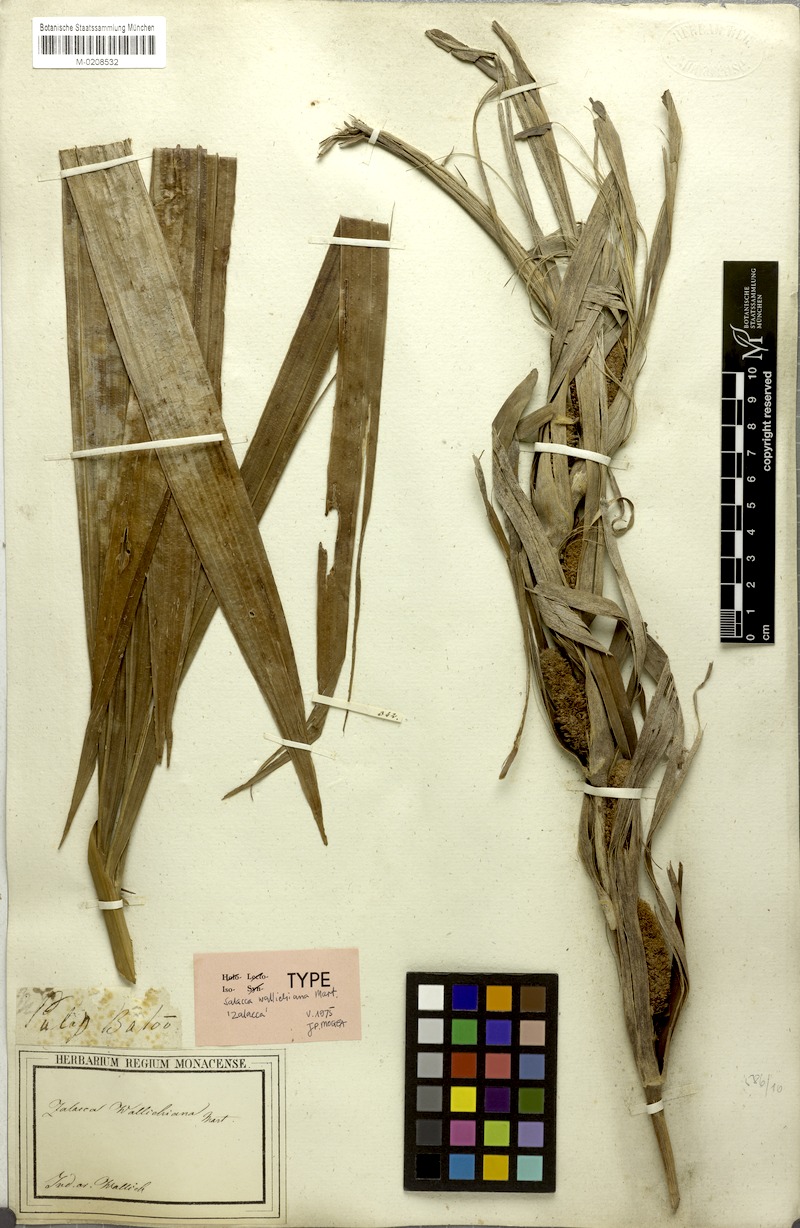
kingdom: Plantae
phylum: Tracheophyta
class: Liliopsida
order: Arecales
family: Arecaceae
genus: Salacca
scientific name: Salacca wallichiana
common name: Rakum palm
